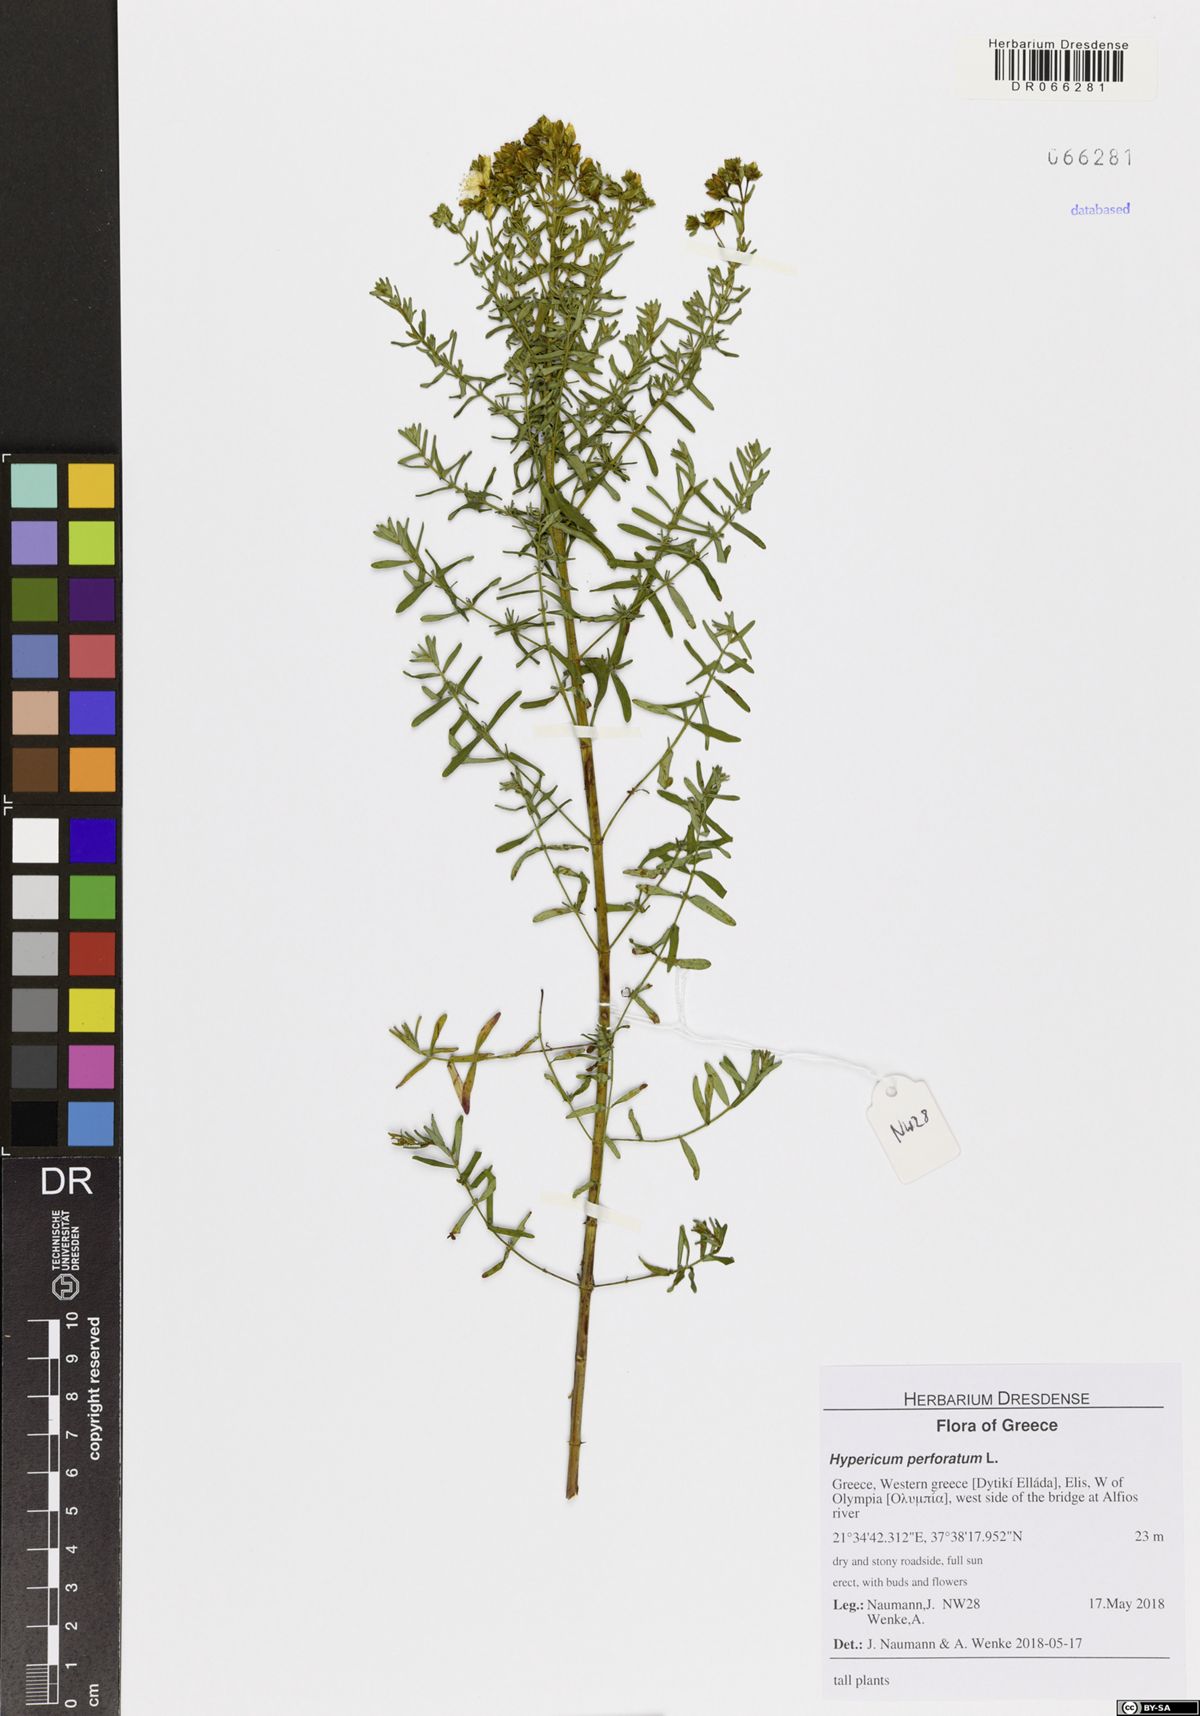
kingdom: Plantae
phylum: Tracheophyta
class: Magnoliopsida
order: Malpighiales
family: Hypericaceae
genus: Hypericum
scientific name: Hypericum perforatum
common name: Common st. johnswort
